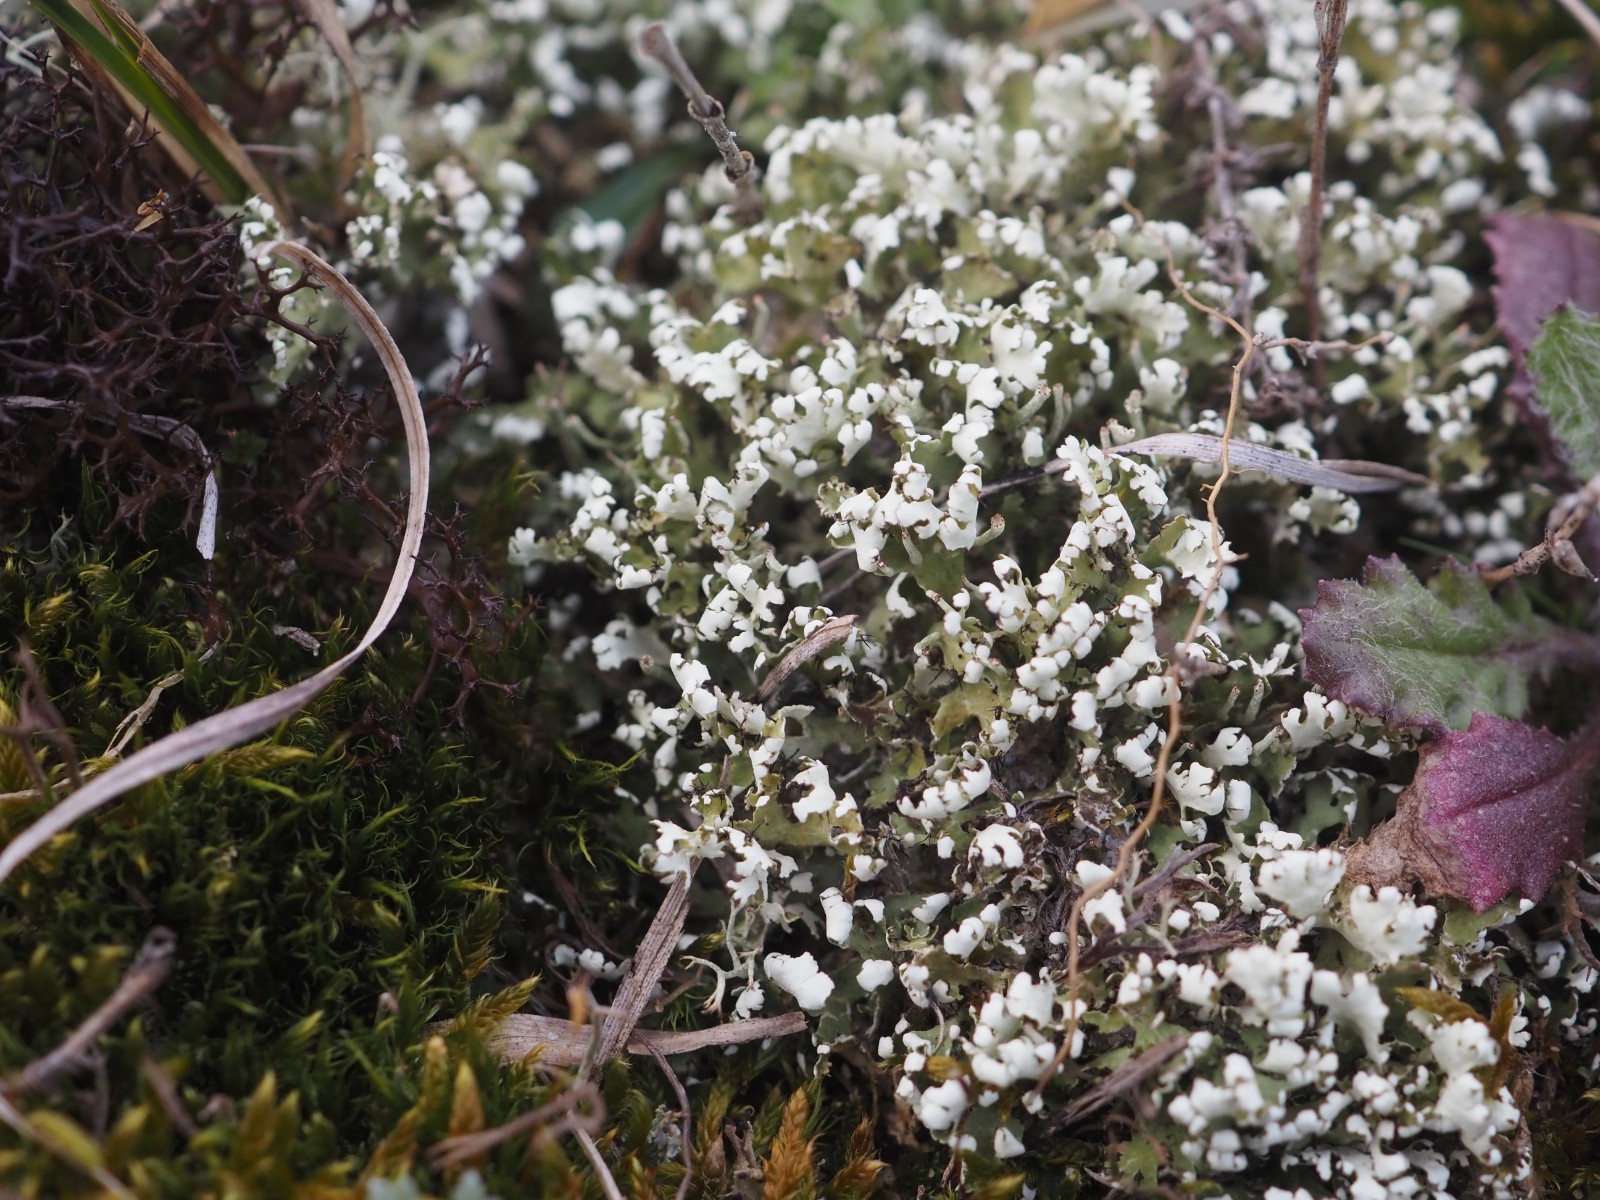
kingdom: Fungi
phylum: Ascomycota
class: Lecanoromycetes
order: Lecanorales
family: Cladoniaceae
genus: Cladonia
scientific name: Cladonia foliacea
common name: fliget bægerlav
